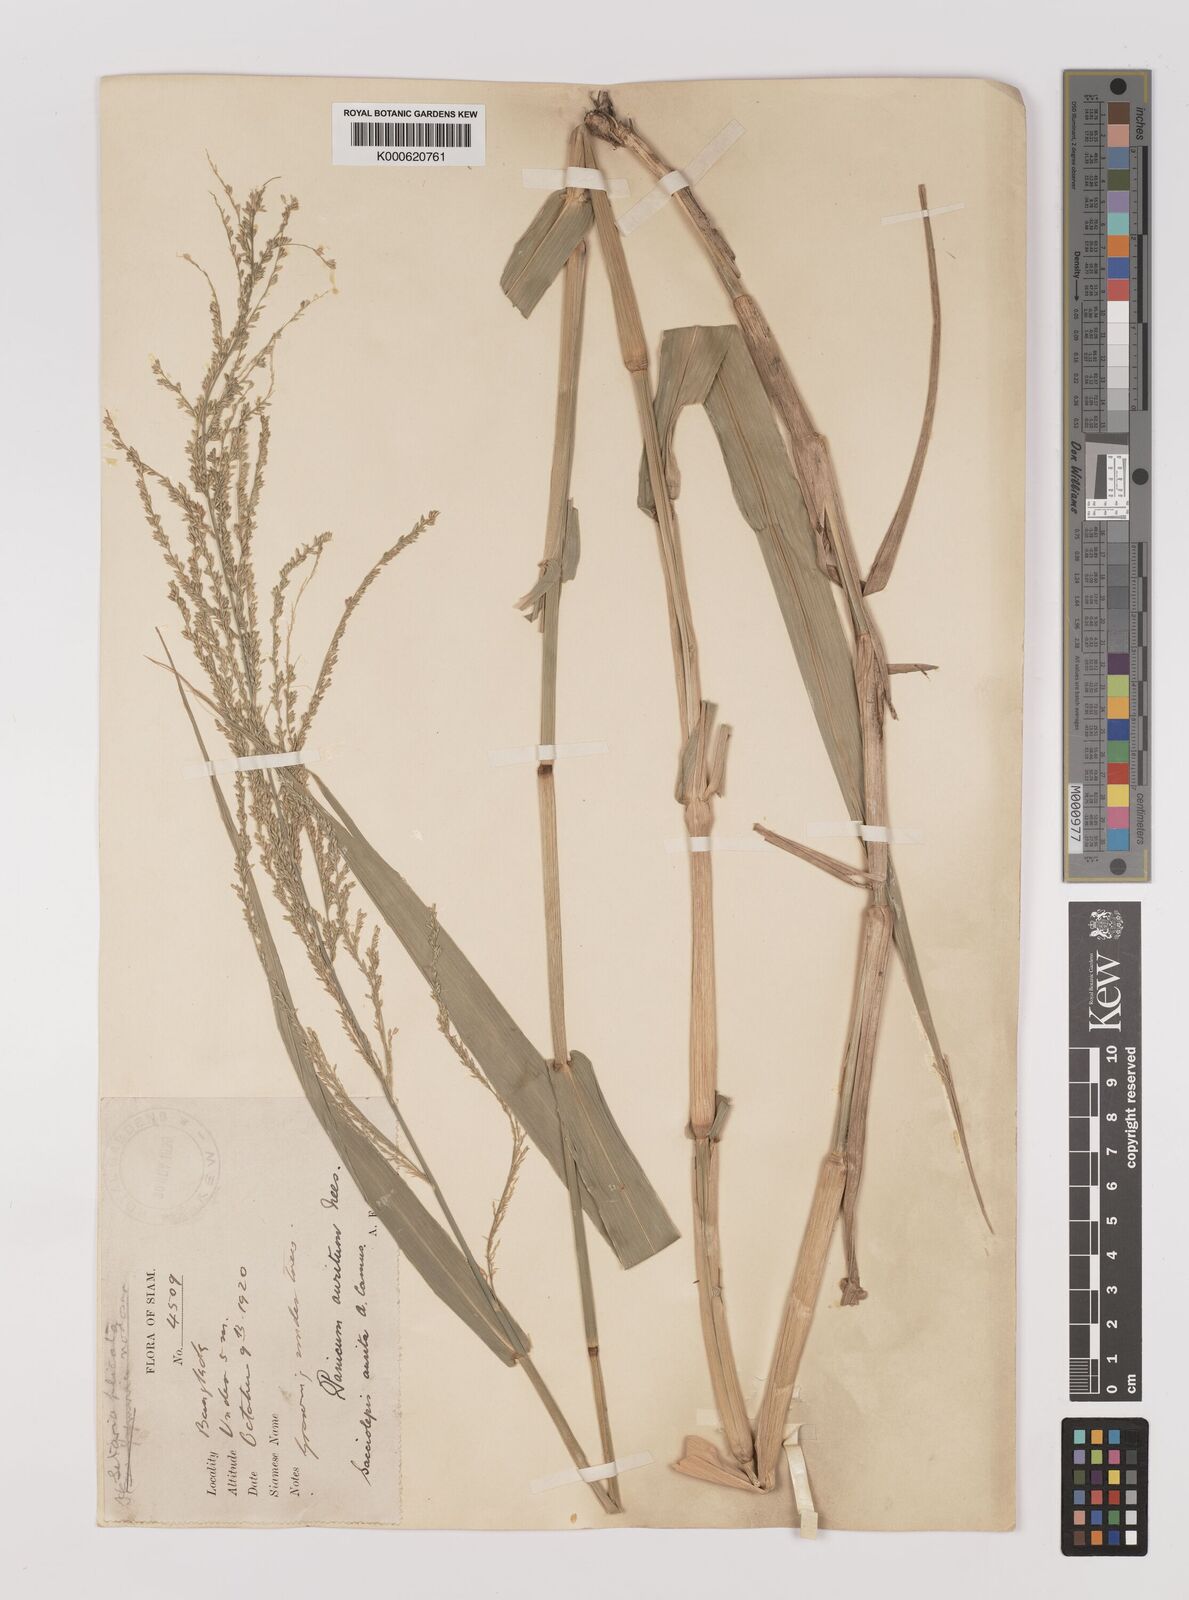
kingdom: Plantae
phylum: Tracheophyta
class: Liliopsida
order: Poales
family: Poaceae
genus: Hymenachne
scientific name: Hymenachne aurita
